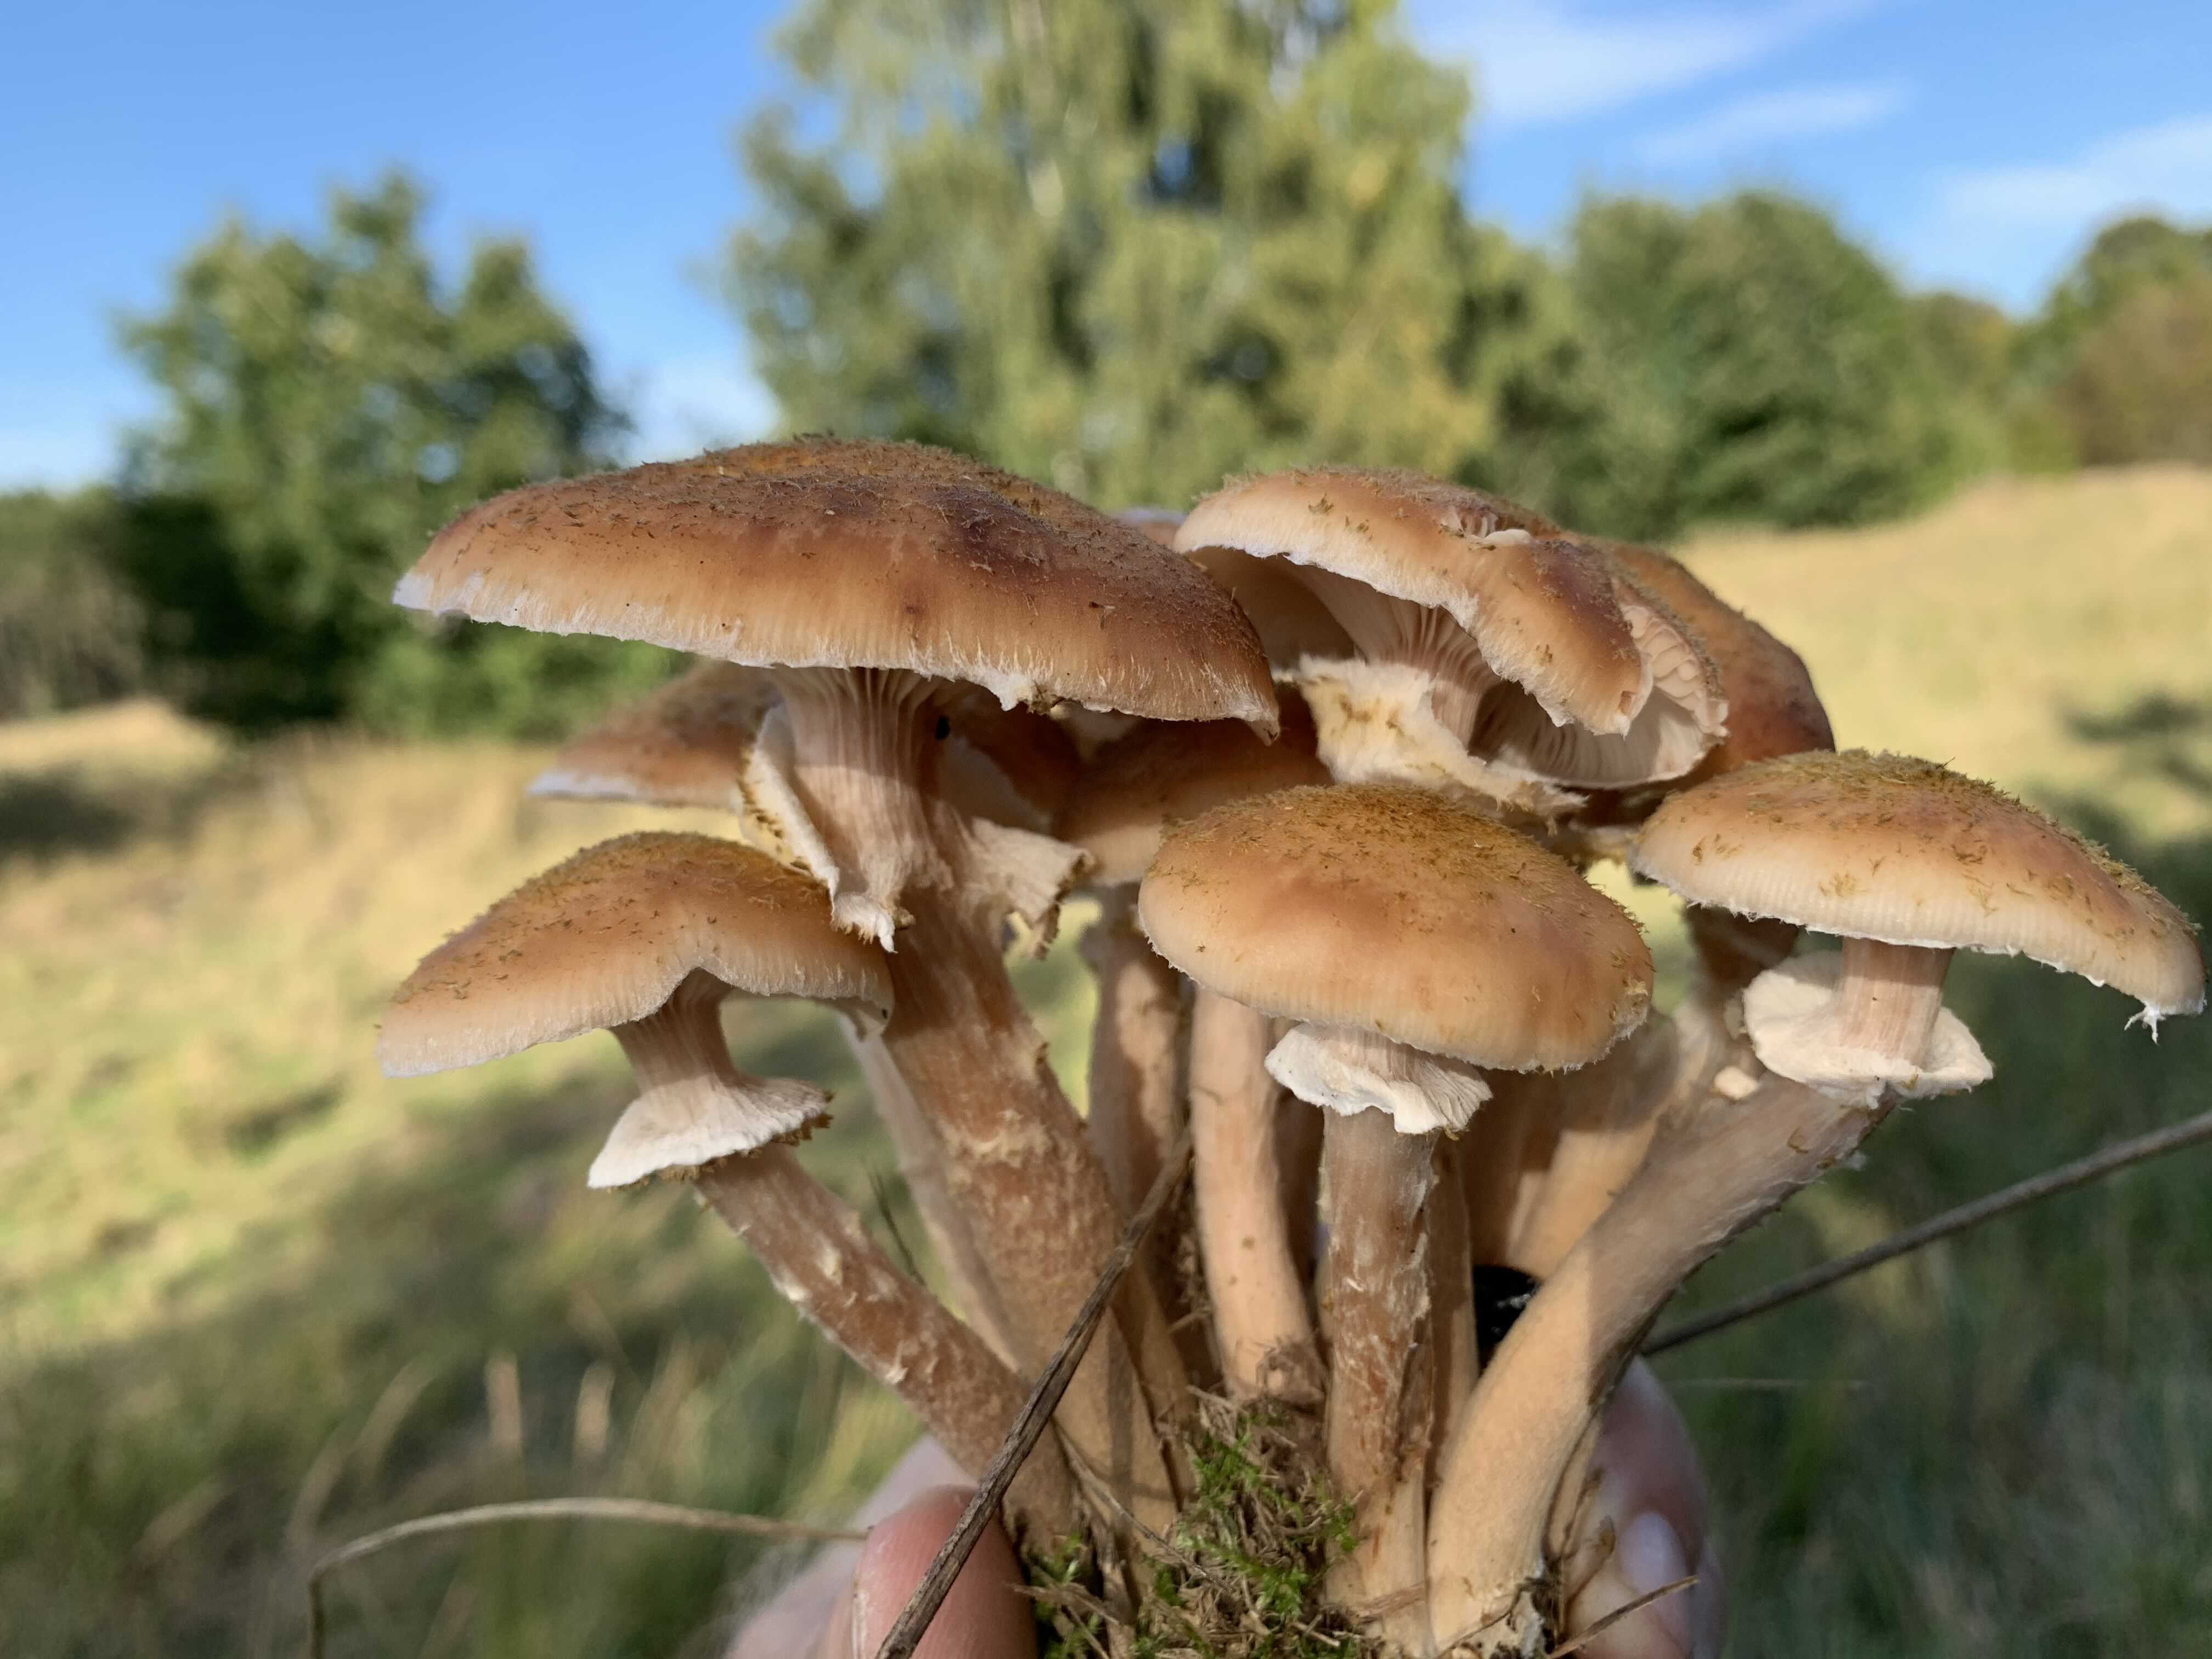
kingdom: Fungi
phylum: Basidiomycota
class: Agaricomycetes
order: Agaricales
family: Physalacriaceae
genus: Armillaria
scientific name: Armillaria
